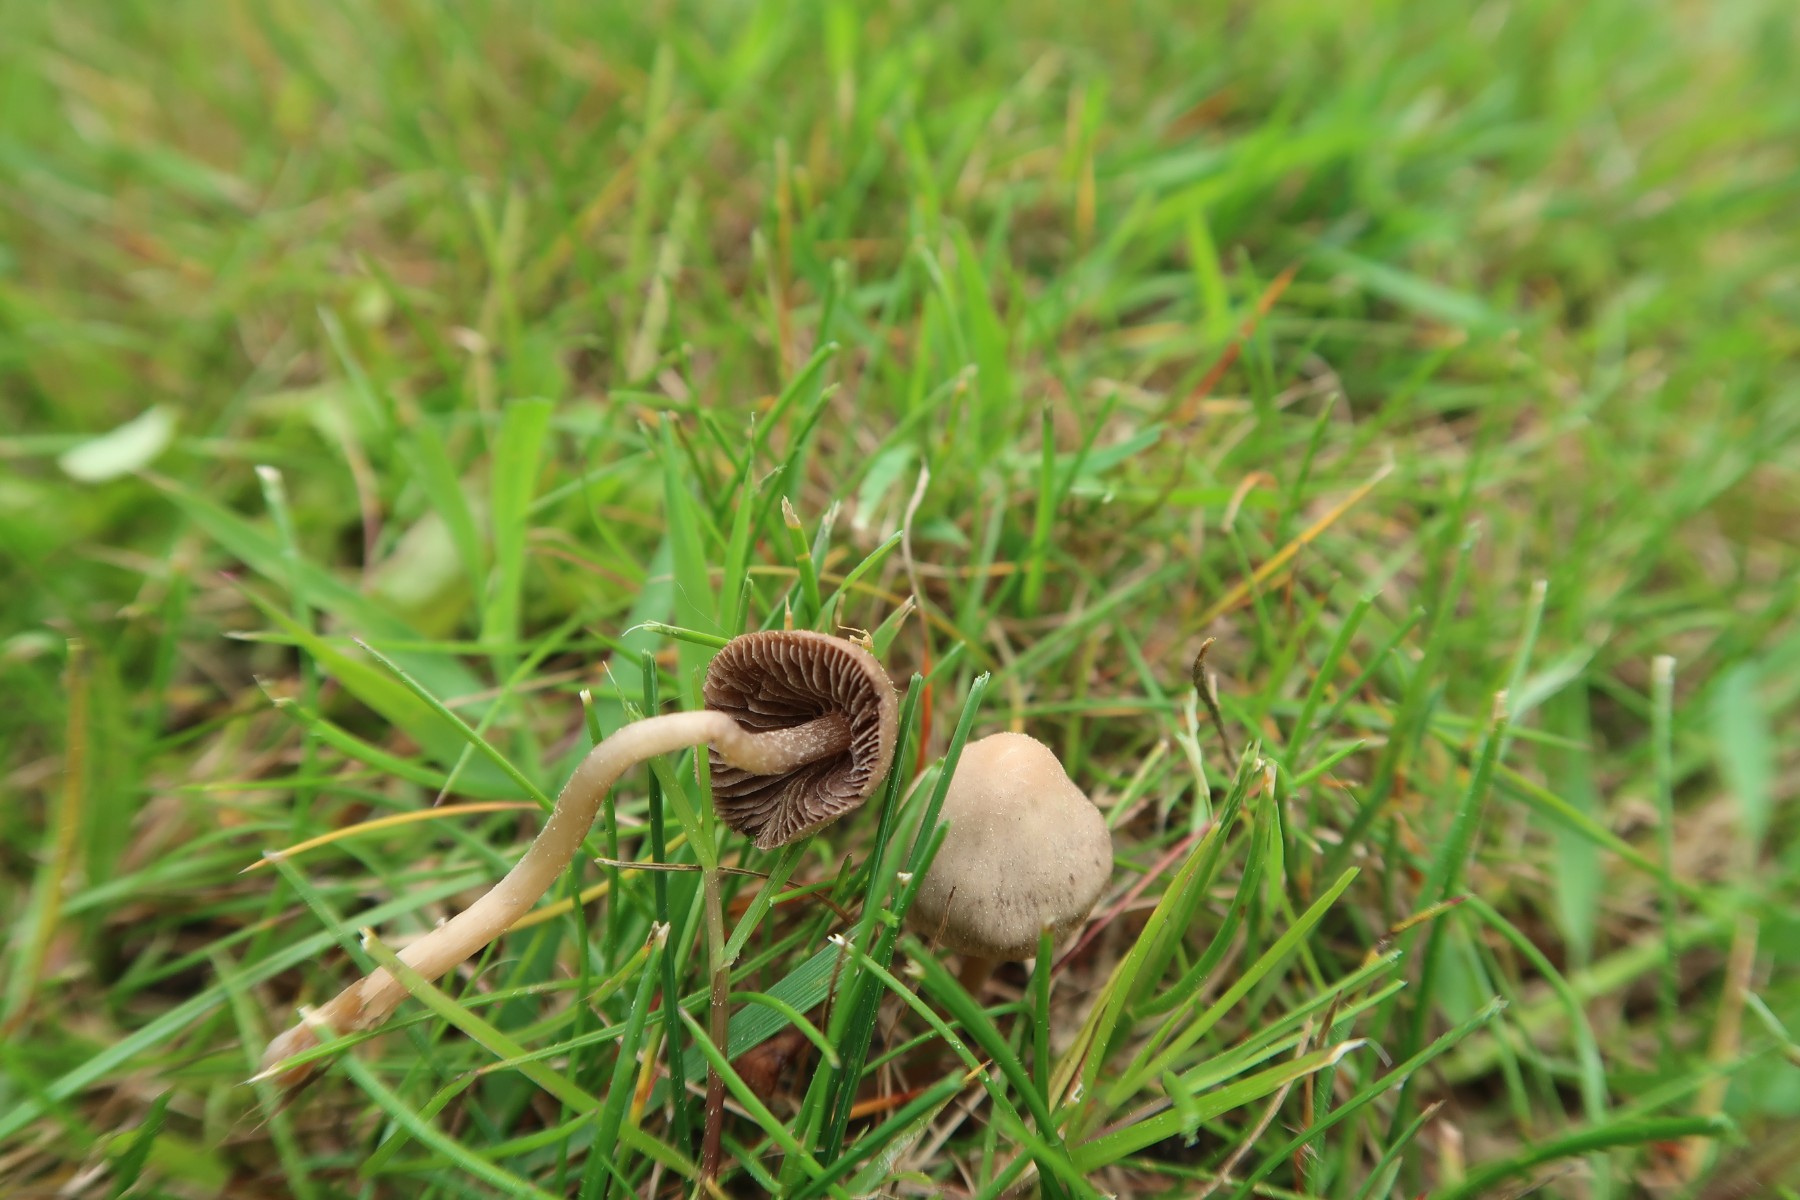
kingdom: Fungi
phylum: Basidiomycota
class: Agaricomycetes
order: Agaricales
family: Bolbitiaceae
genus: Panaeolina
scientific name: Panaeolina foenisecii
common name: høslætsvamp
